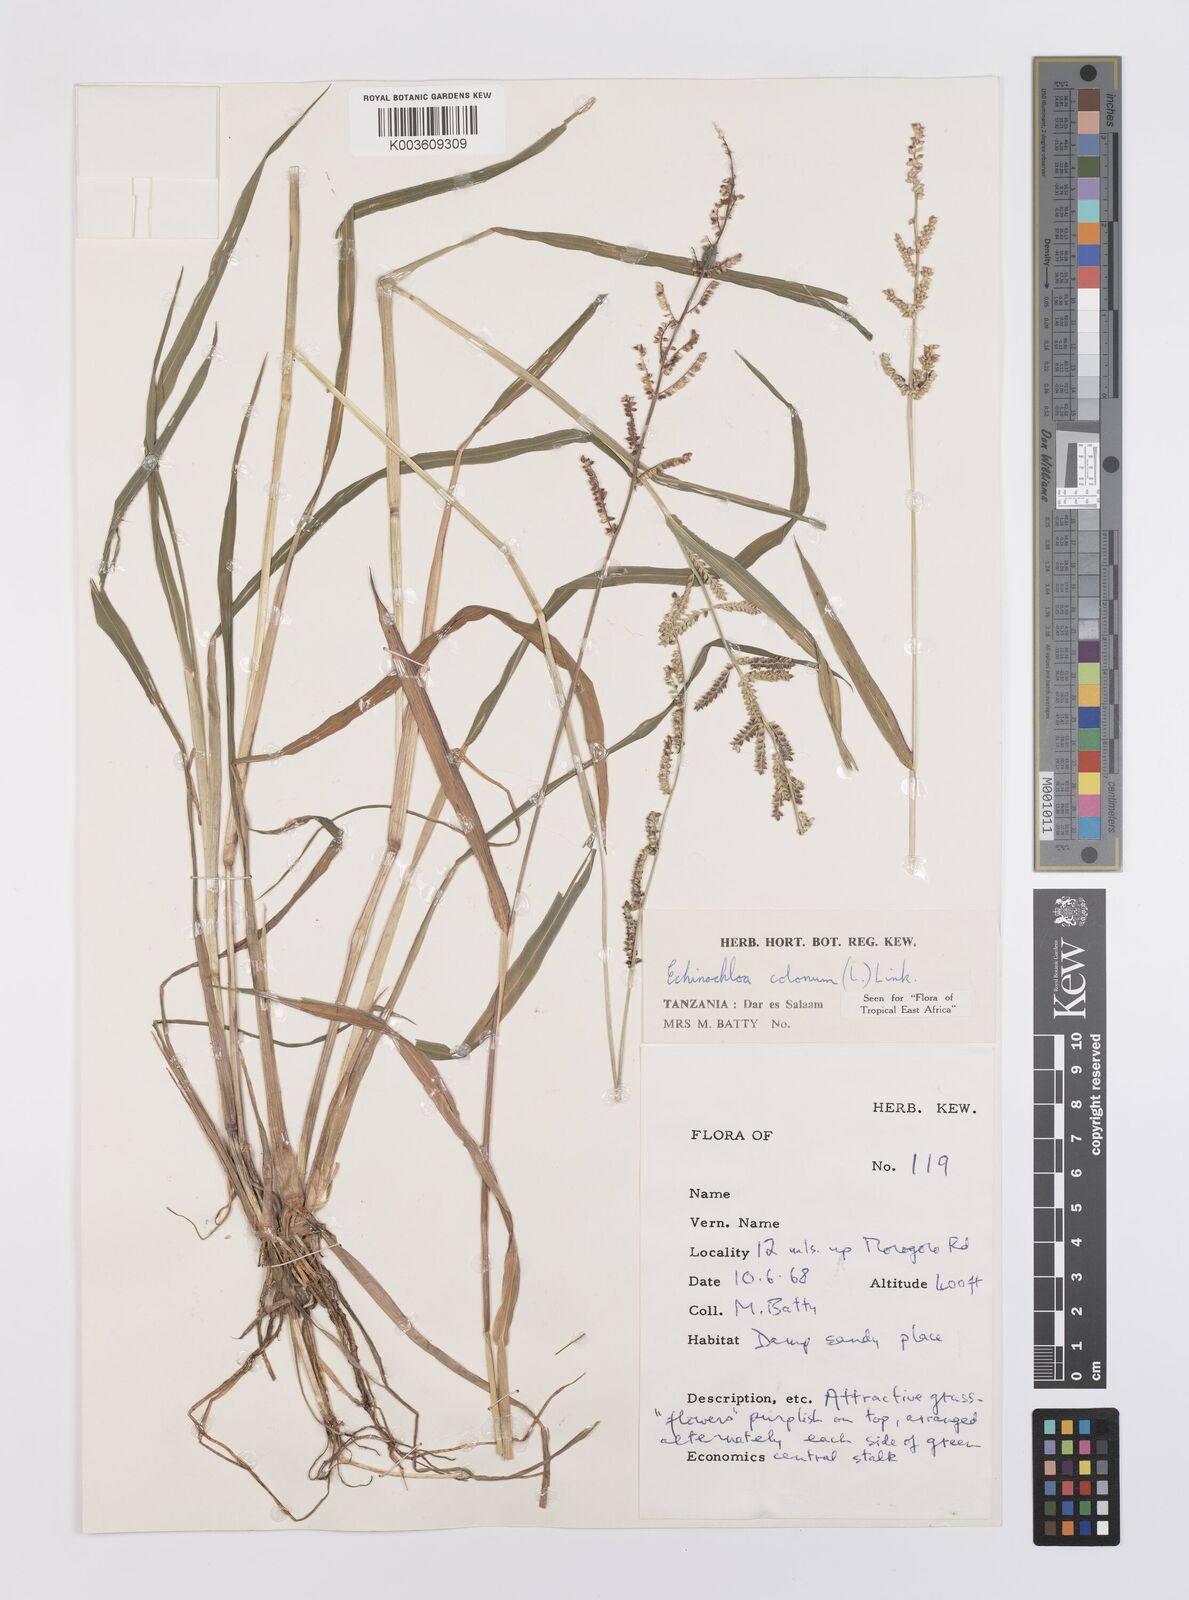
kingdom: Plantae
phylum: Tracheophyta
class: Liliopsida
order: Poales
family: Poaceae
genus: Echinochloa
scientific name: Echinochloa colonum
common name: Jungle rice
